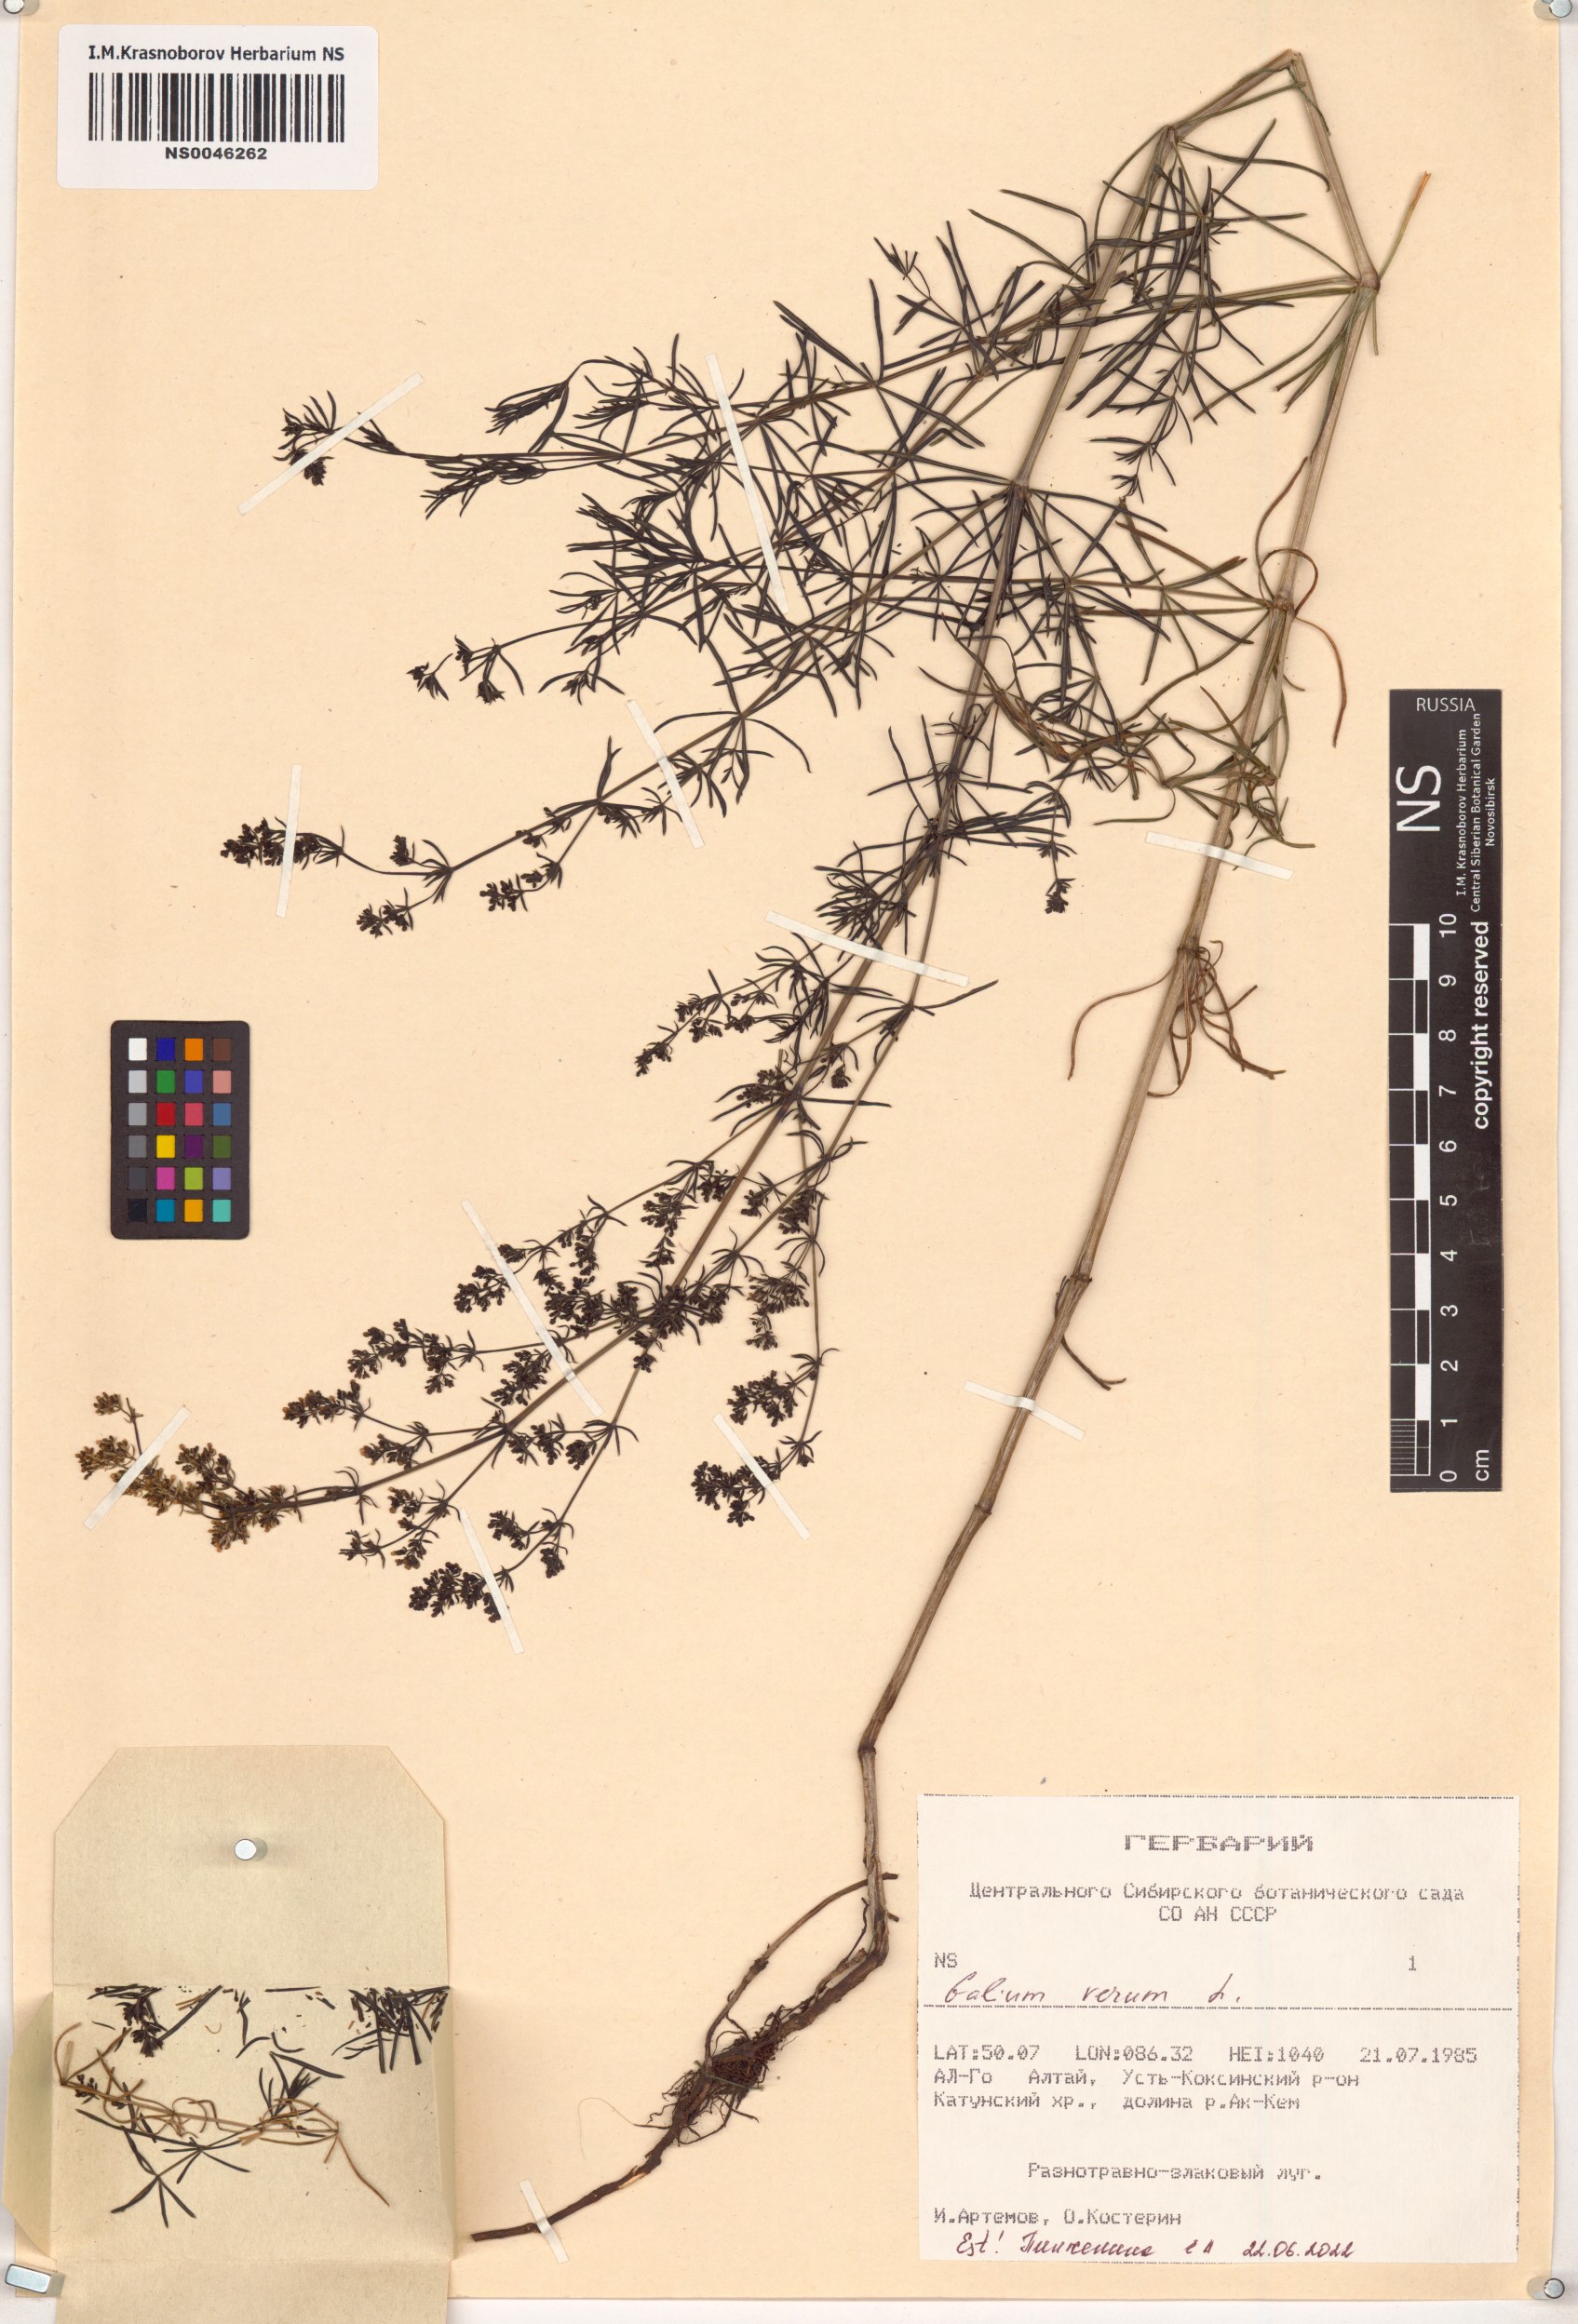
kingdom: Plantae
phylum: Tracheophyta
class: Magnoliopsida
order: Gentianales
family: Rubiaceae
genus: Galium
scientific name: Galium verum
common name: Lady's bedstraw
